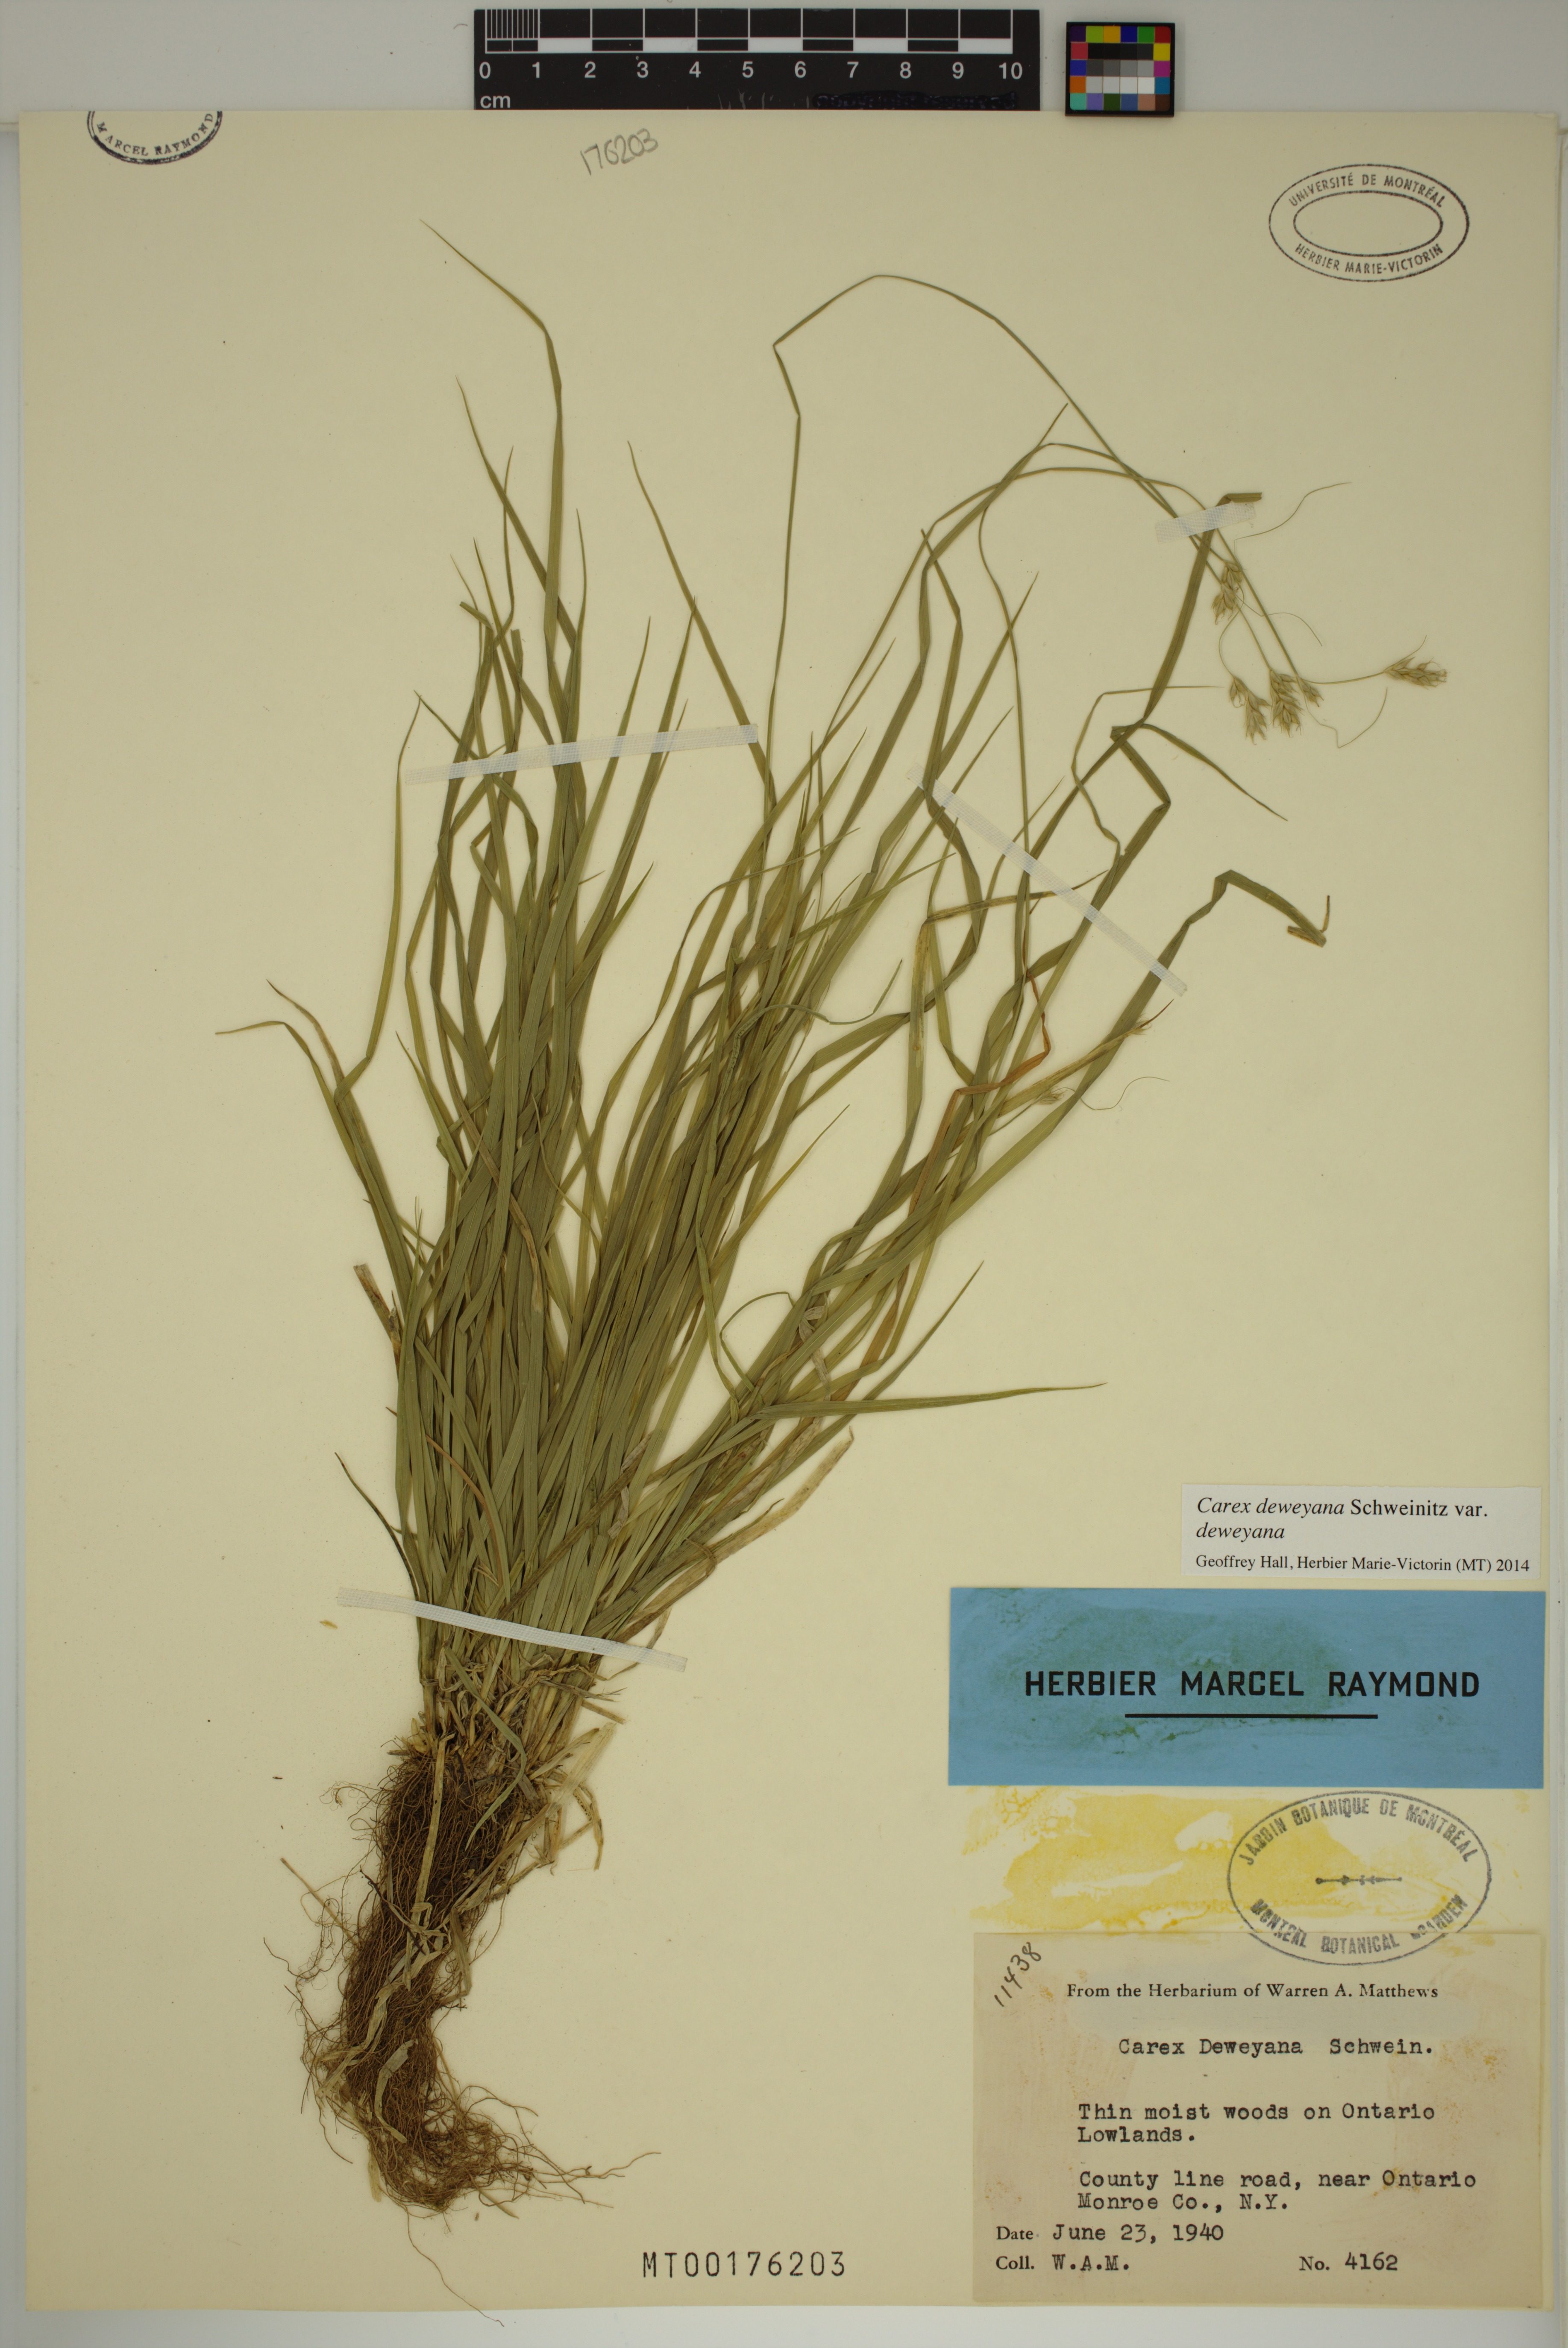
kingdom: Plantae
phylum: Tracheophyta
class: Liliopsida
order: Poales
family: Cyperaceae
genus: Carex
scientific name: Carex deweyana
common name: Dewey's sedge
